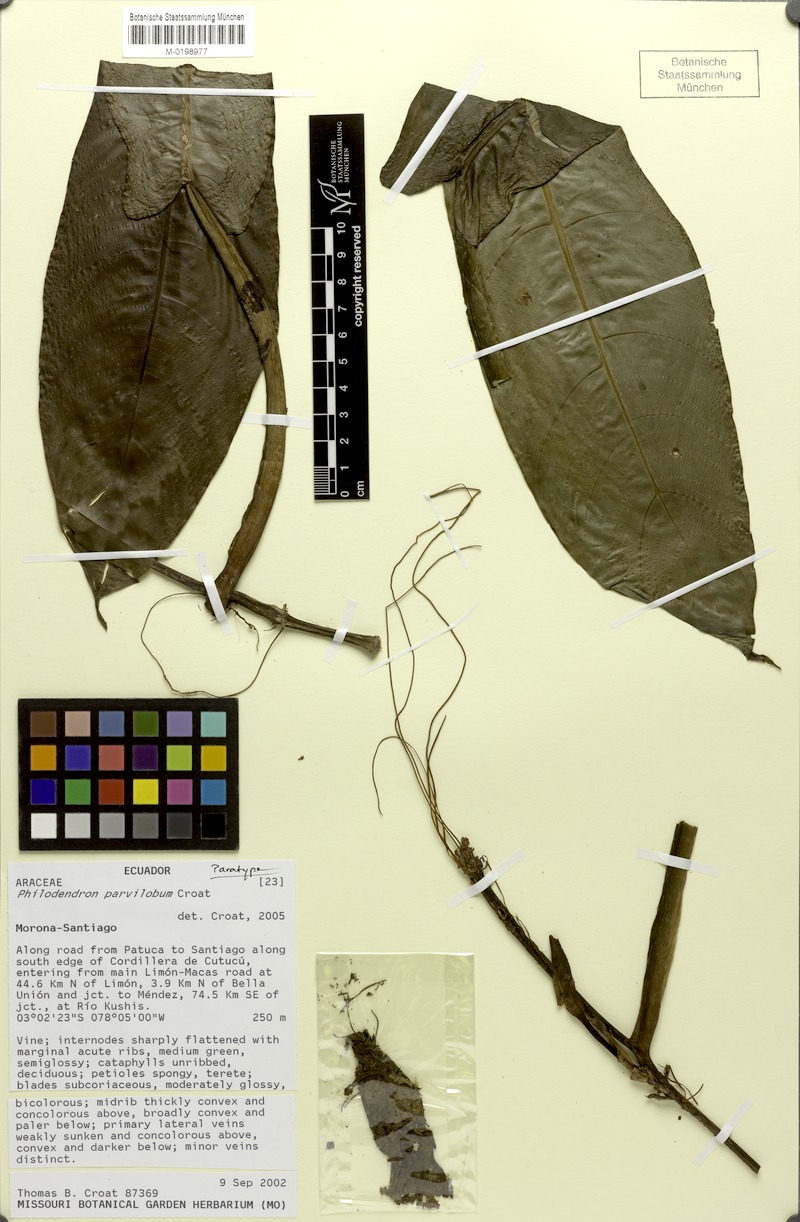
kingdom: Plantae
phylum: Tracheophyta
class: Liliopsida
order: Alismatales
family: Araceae
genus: Philodendron
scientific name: Philodendron parvilobum
